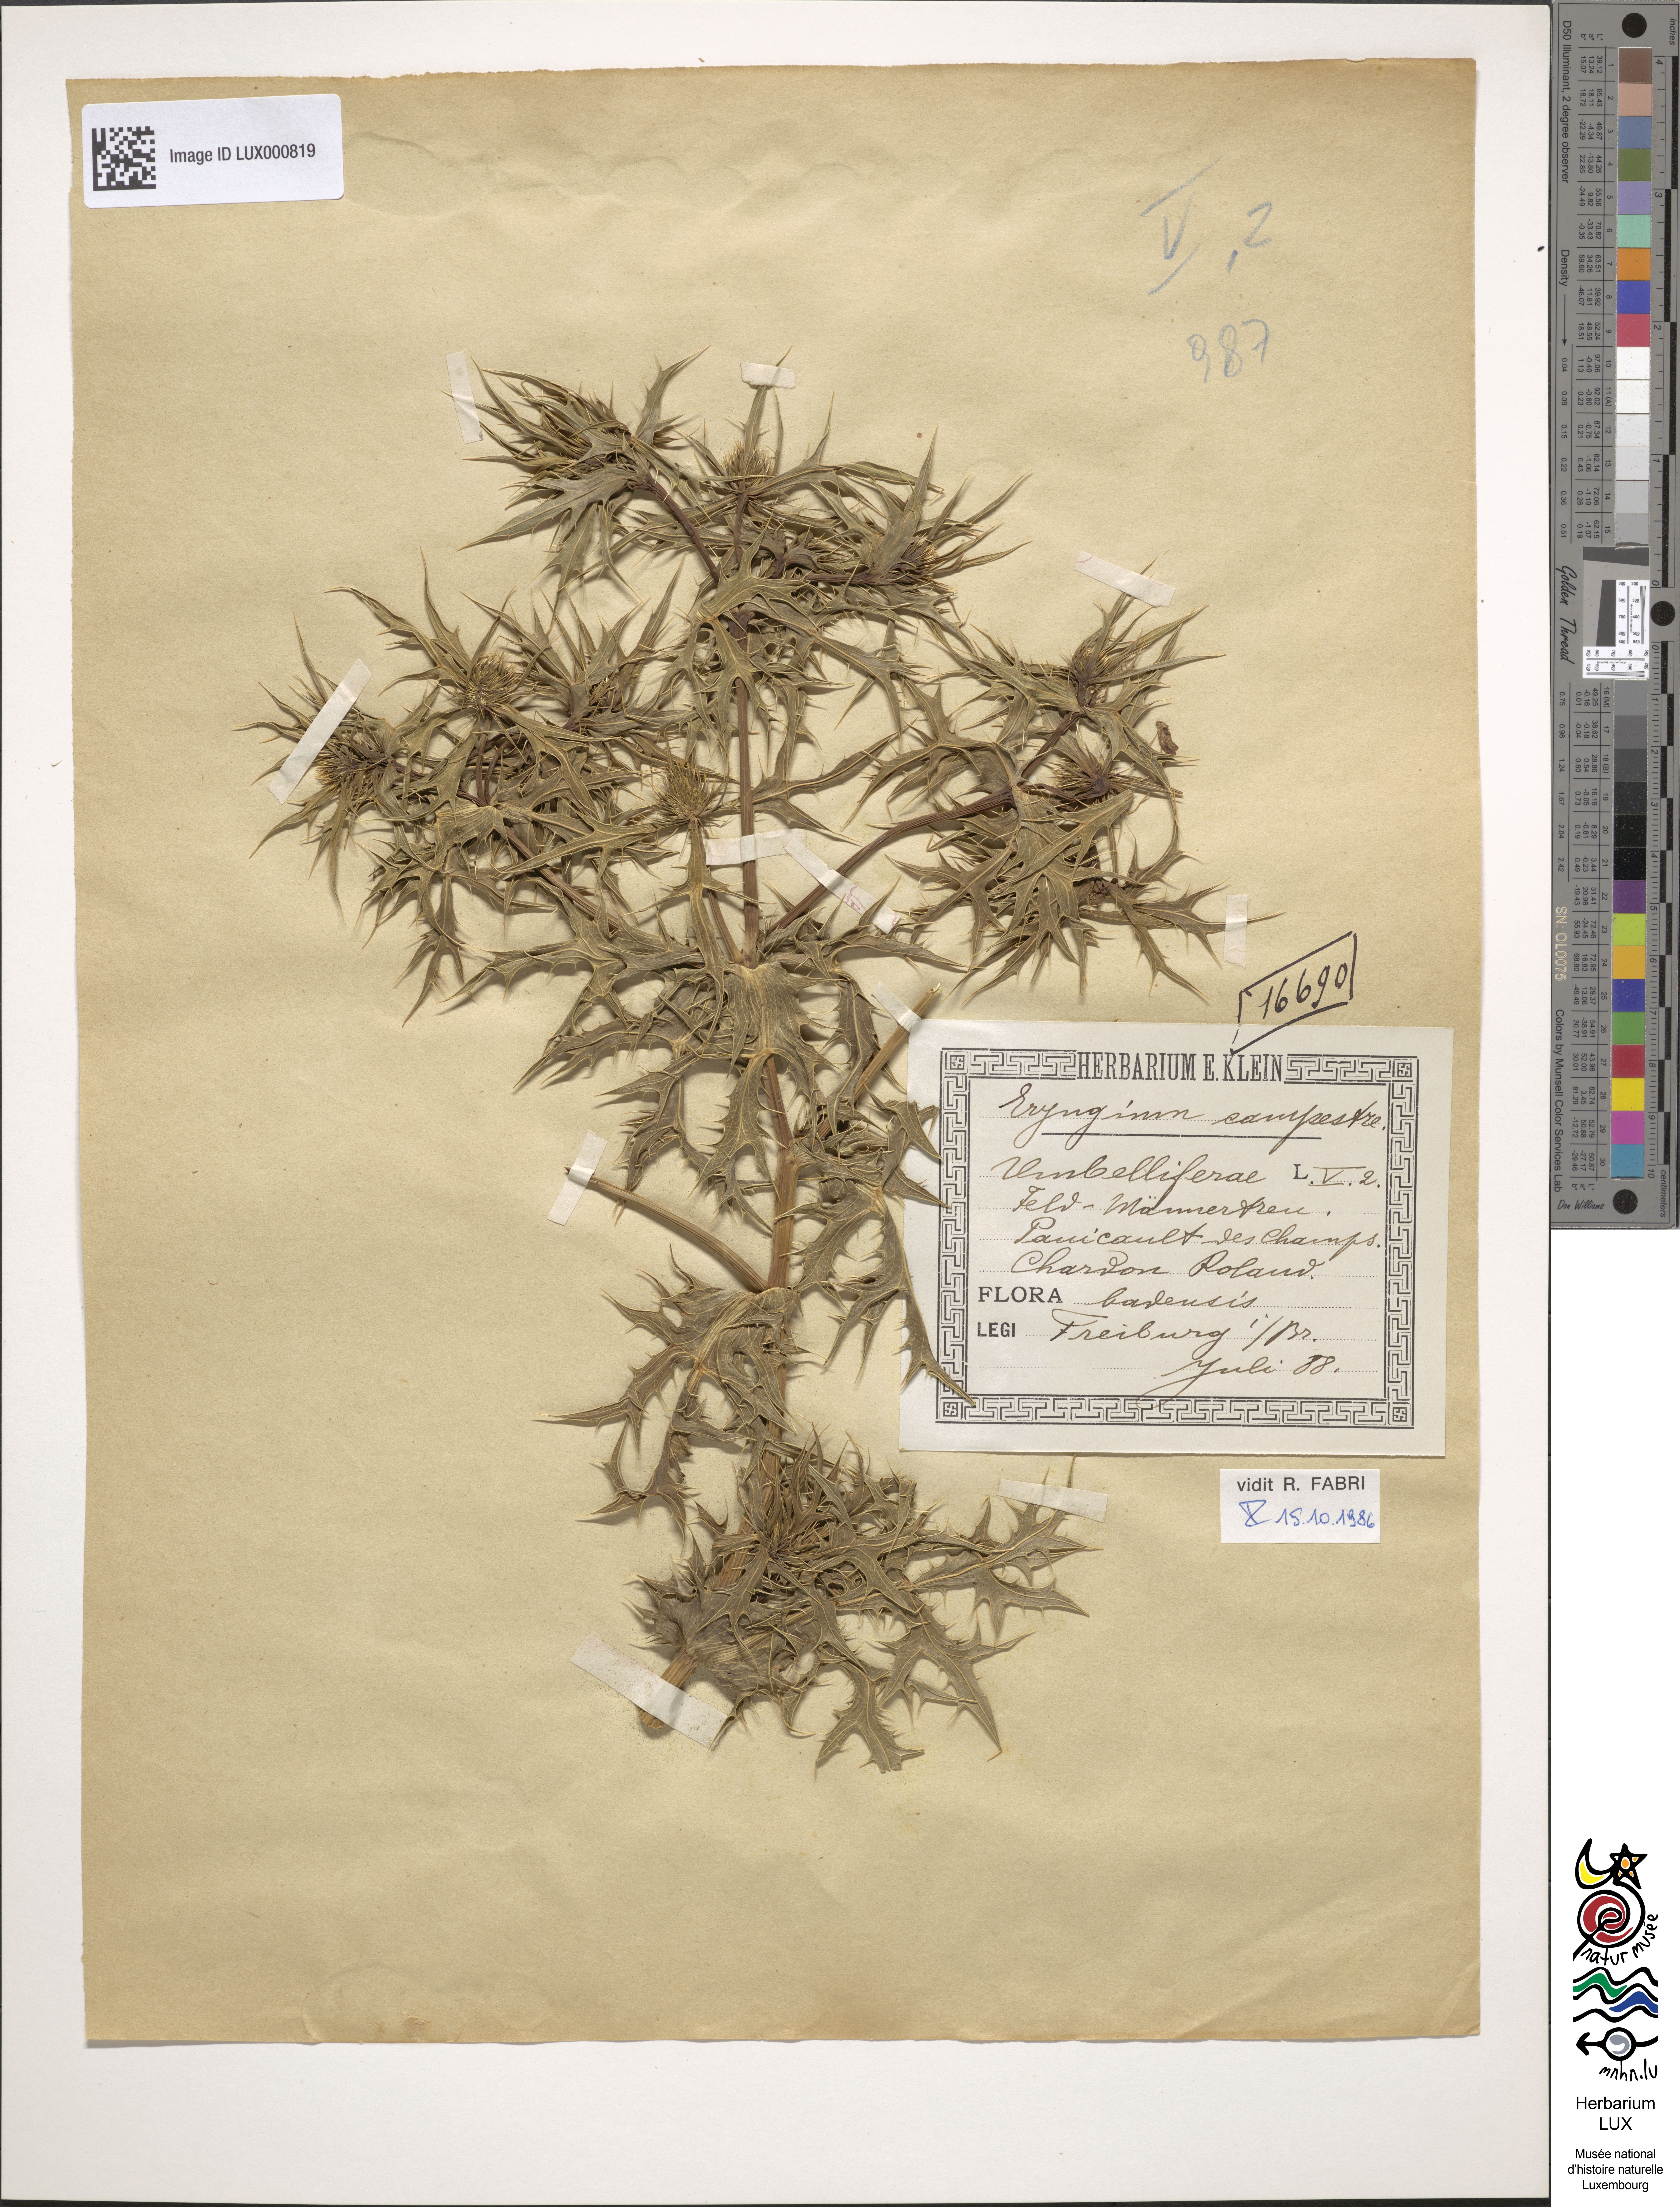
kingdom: Plantae
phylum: Tracheophyta
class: Magnoliopsida
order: Apiales
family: Apiaceae
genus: Eryngium
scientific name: Eryngium campestre
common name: Field eryngo
